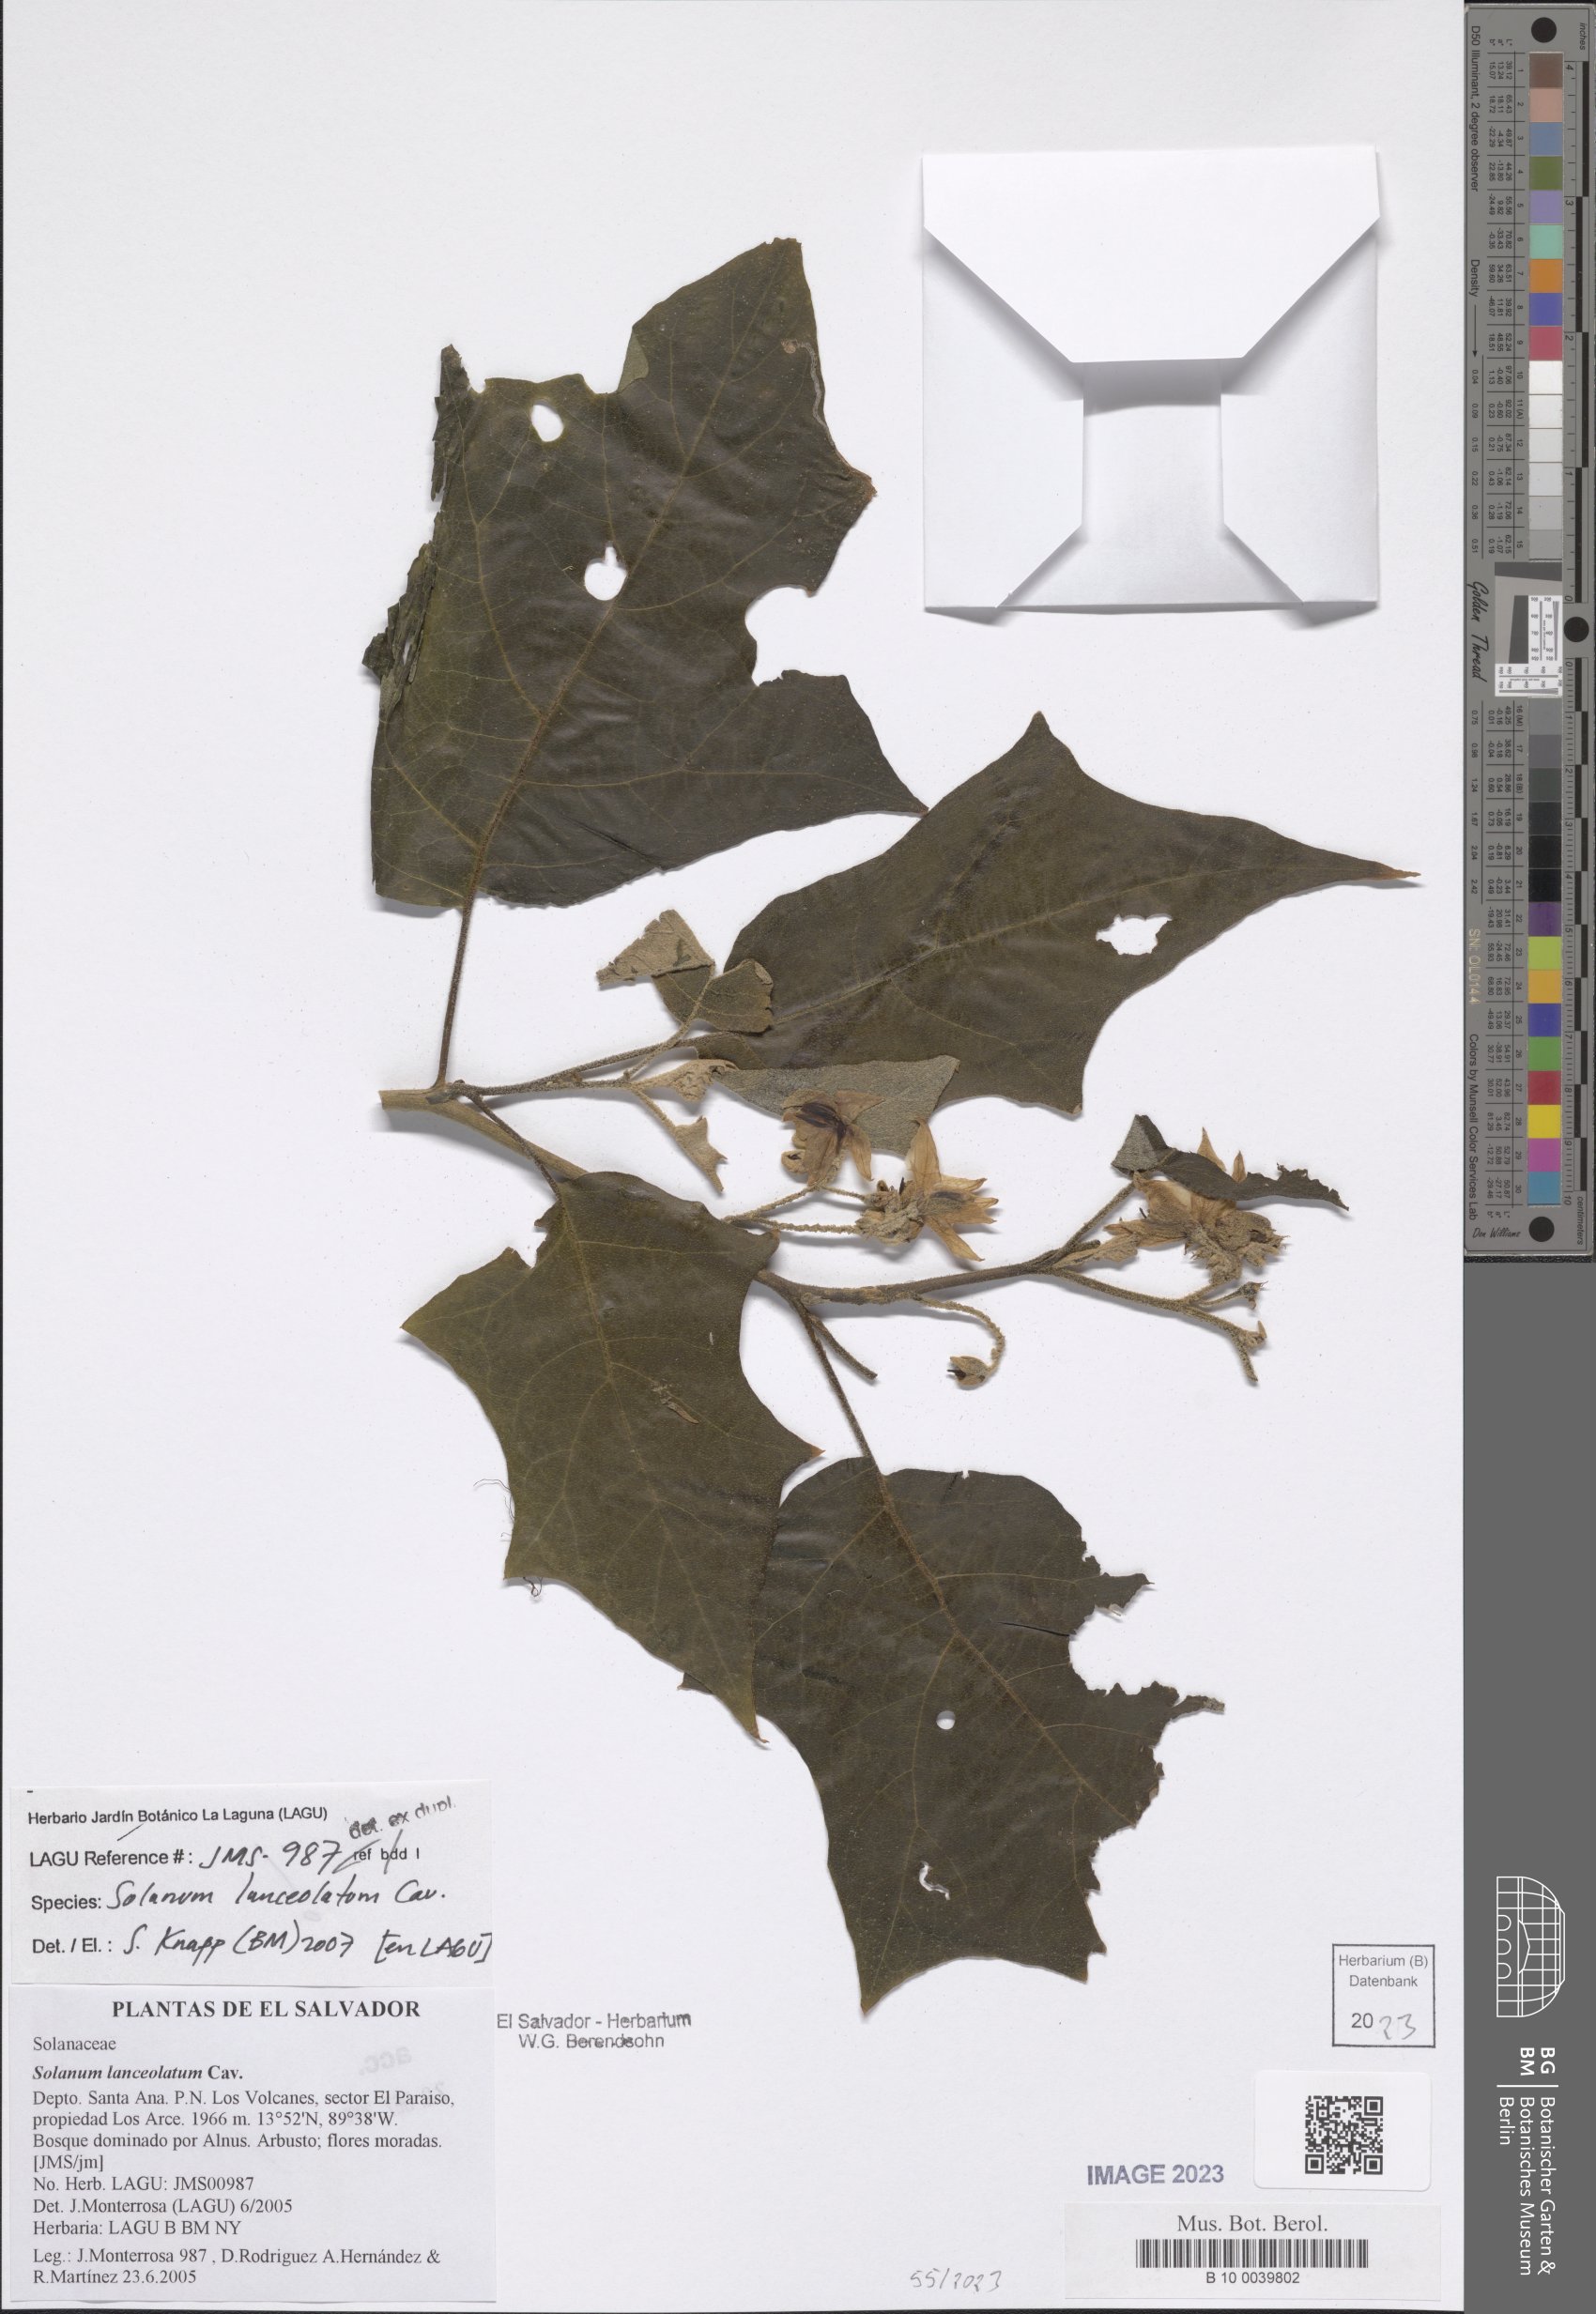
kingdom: Plantae
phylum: Tracheophyta
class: Magnoliopsida
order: Solanales
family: Solanaceae
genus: Solanum
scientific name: Solanum lanceolatum
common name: Orangeberry nightshade
